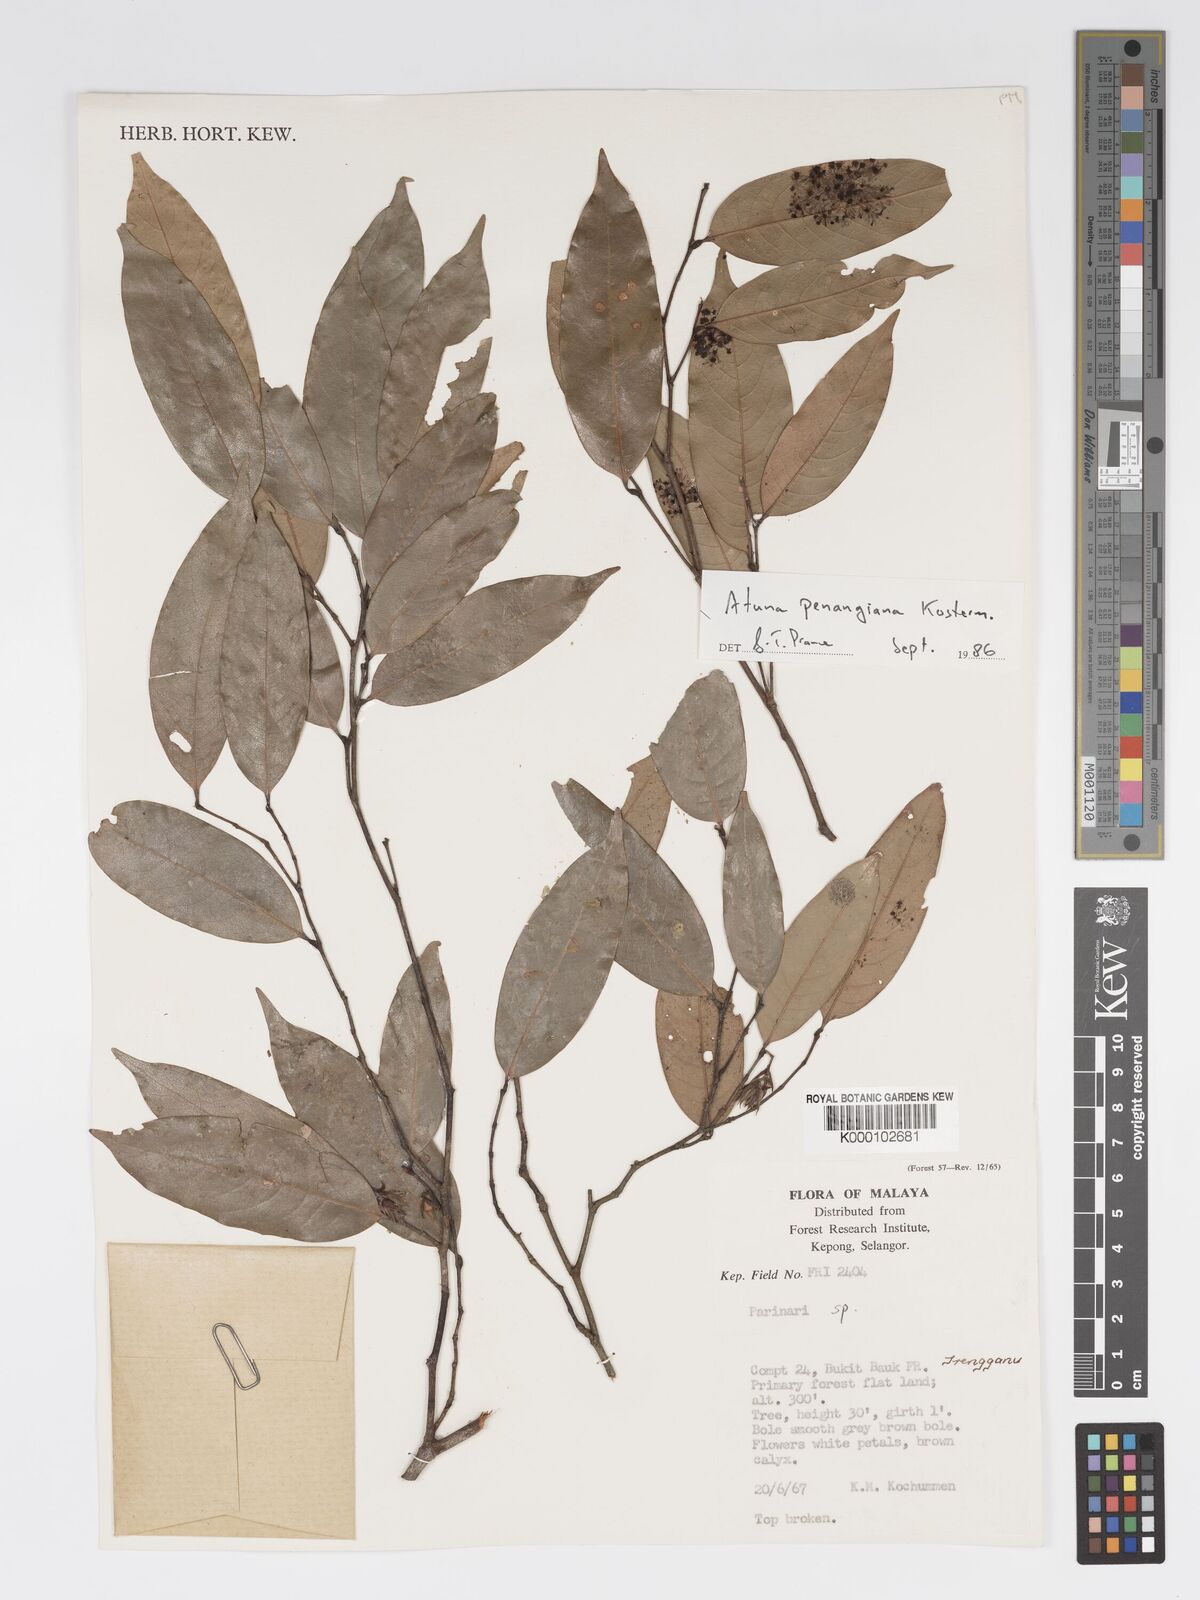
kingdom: Plantae
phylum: Tracheophyta
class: Magnoliopsida
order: Malpighiales
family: Chrysobalanaceae
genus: Atuna
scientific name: Atuna penangiana
